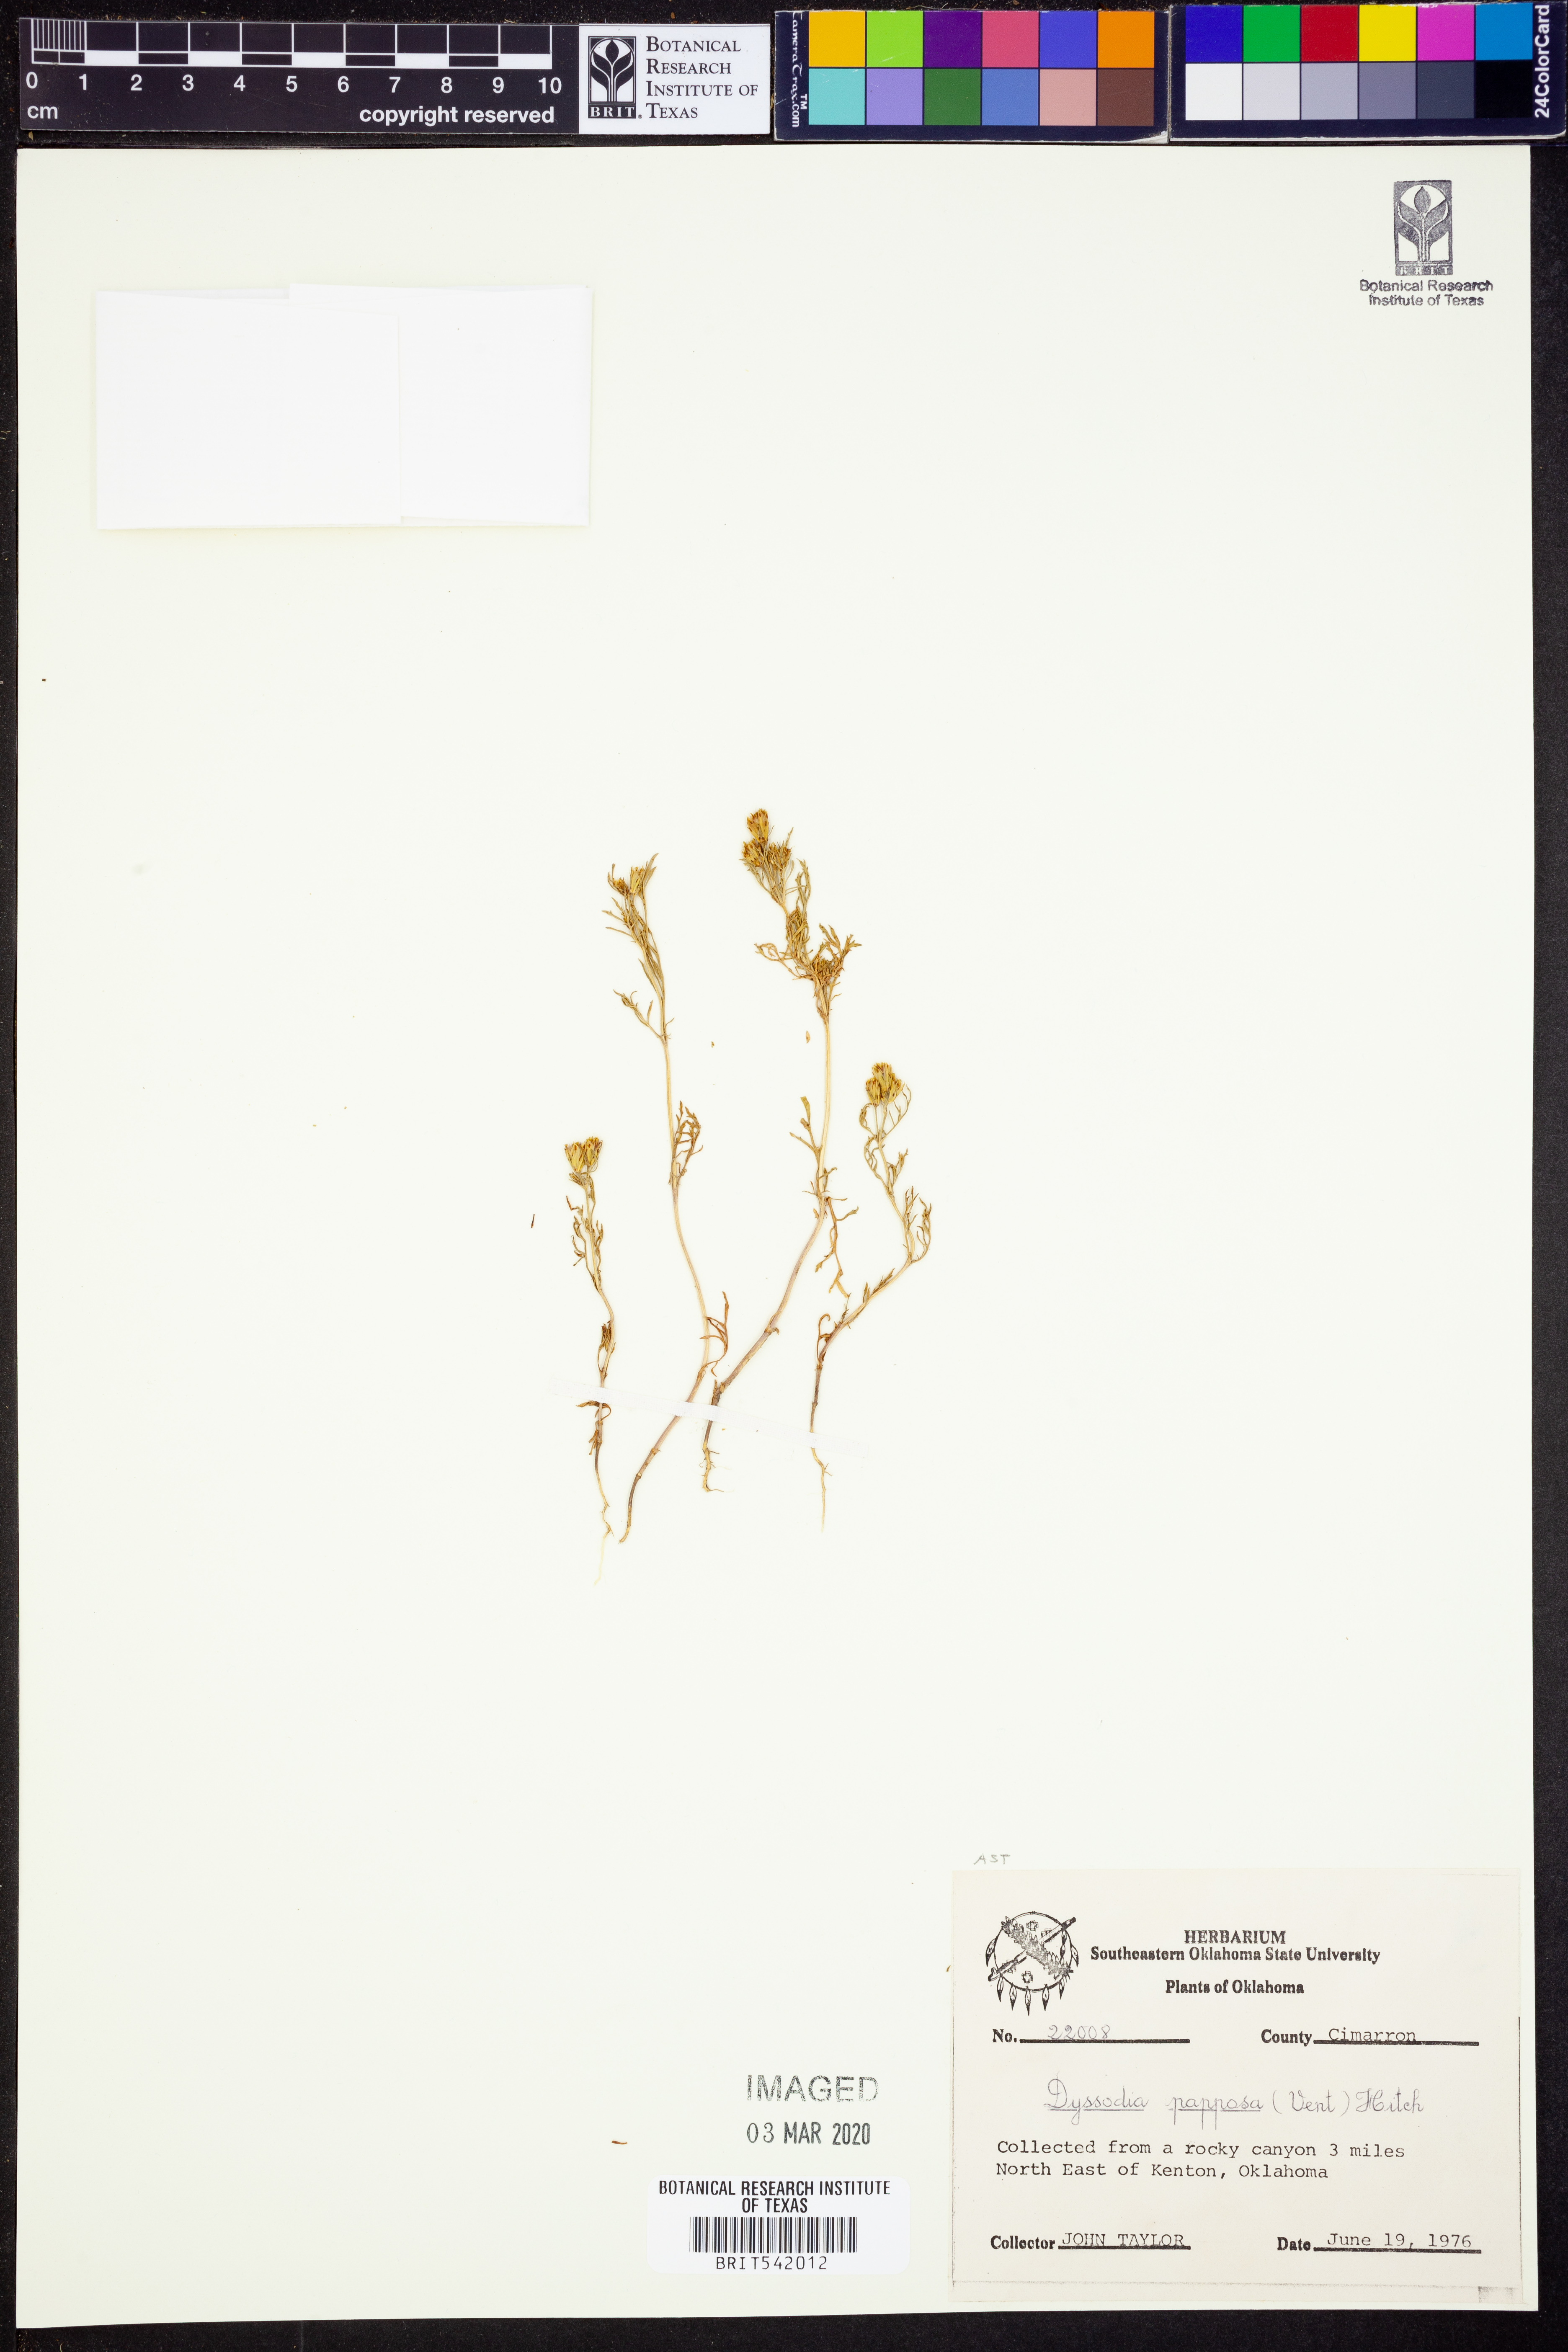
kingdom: Plantae
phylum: Tracheophyta
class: Magnoliopsida
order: Asterales
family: Asteraceae
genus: Dyssodia
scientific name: Dyssodia papposa
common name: Dogweed
